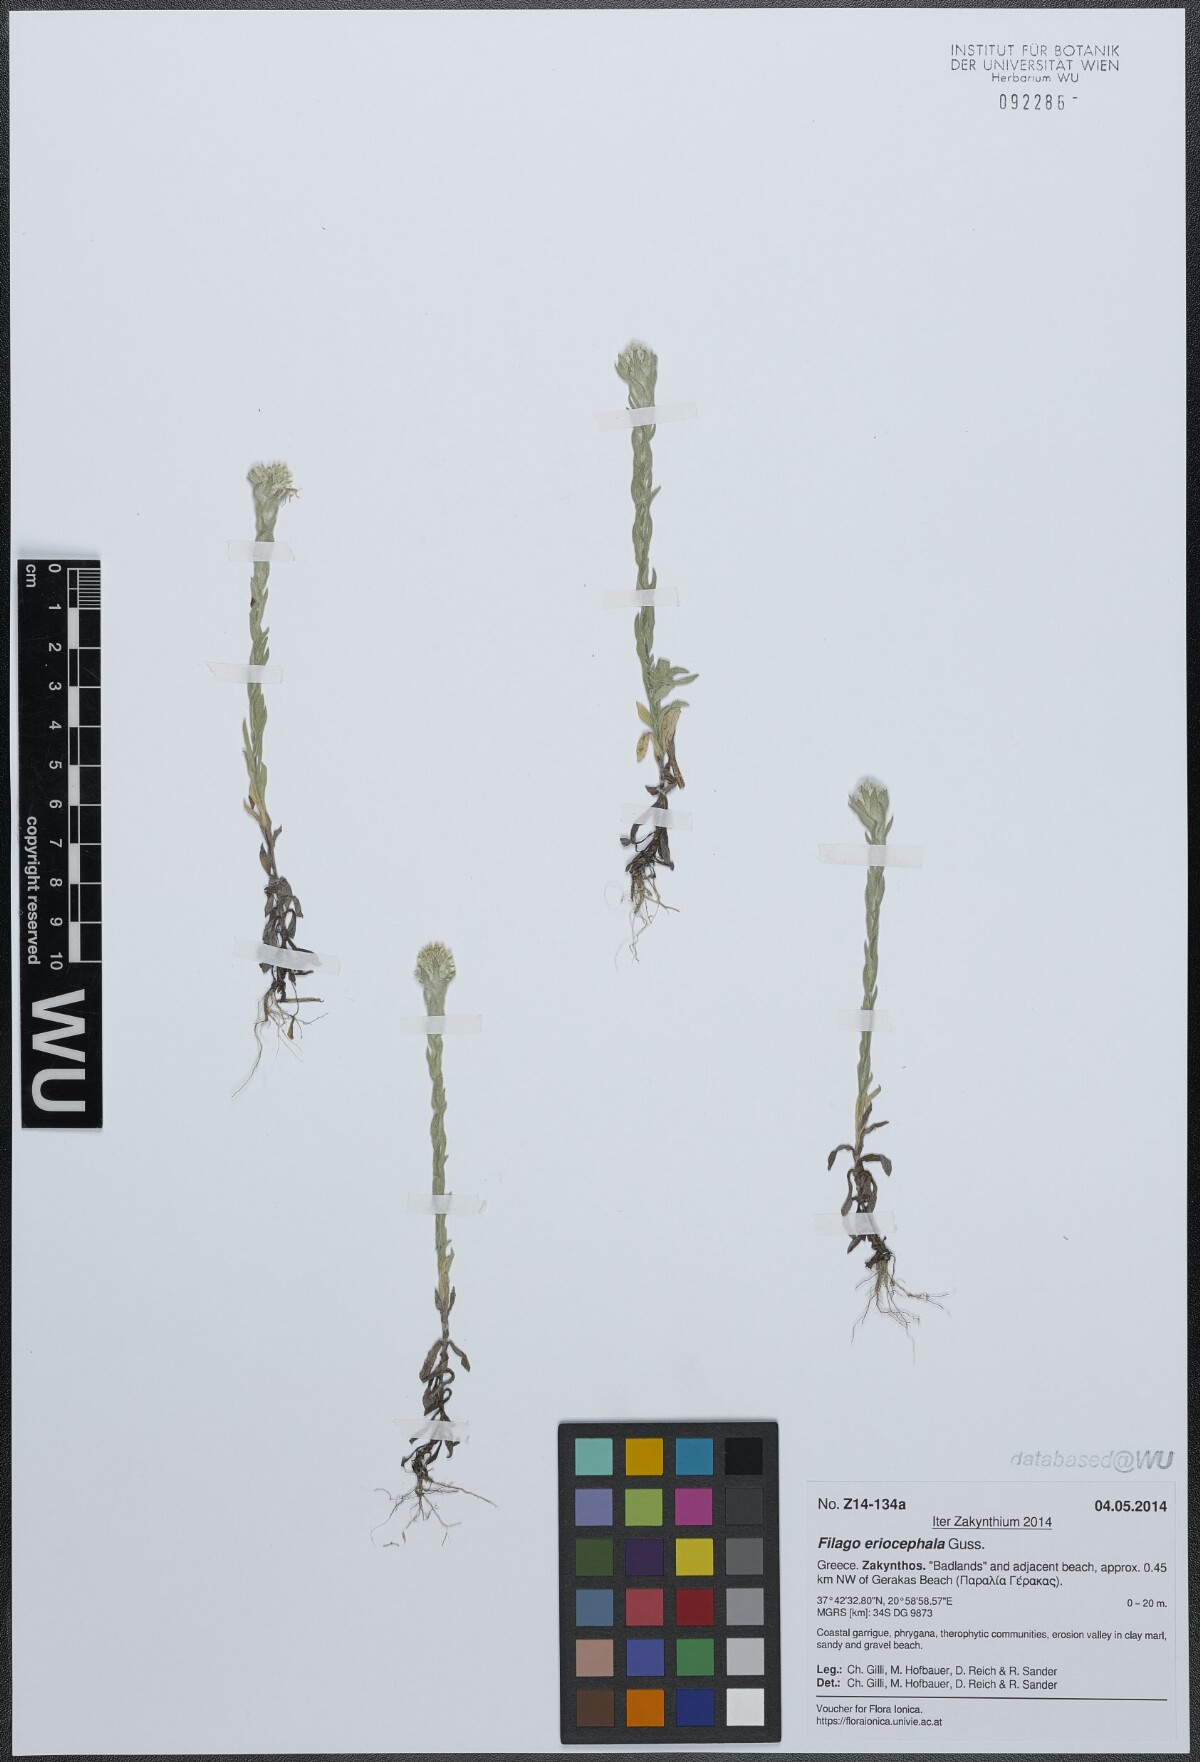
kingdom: Plantae
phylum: Tracheophyta
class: Magnoliopsida
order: Asterales
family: Asteraceae
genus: Filago
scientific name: Filago eriocephala
